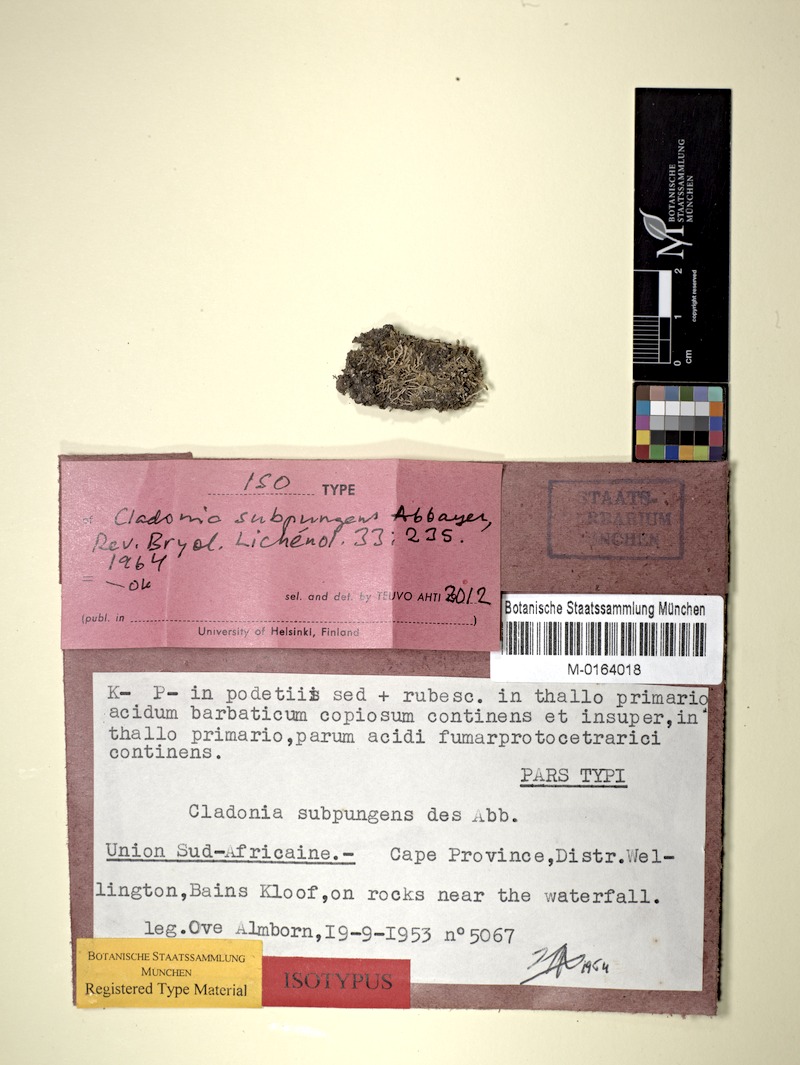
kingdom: Fungi
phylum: Ascomycota
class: Lecanoromycetes
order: Lecanorales
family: Cladoniaceae
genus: Cladonia
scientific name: Cladonia
